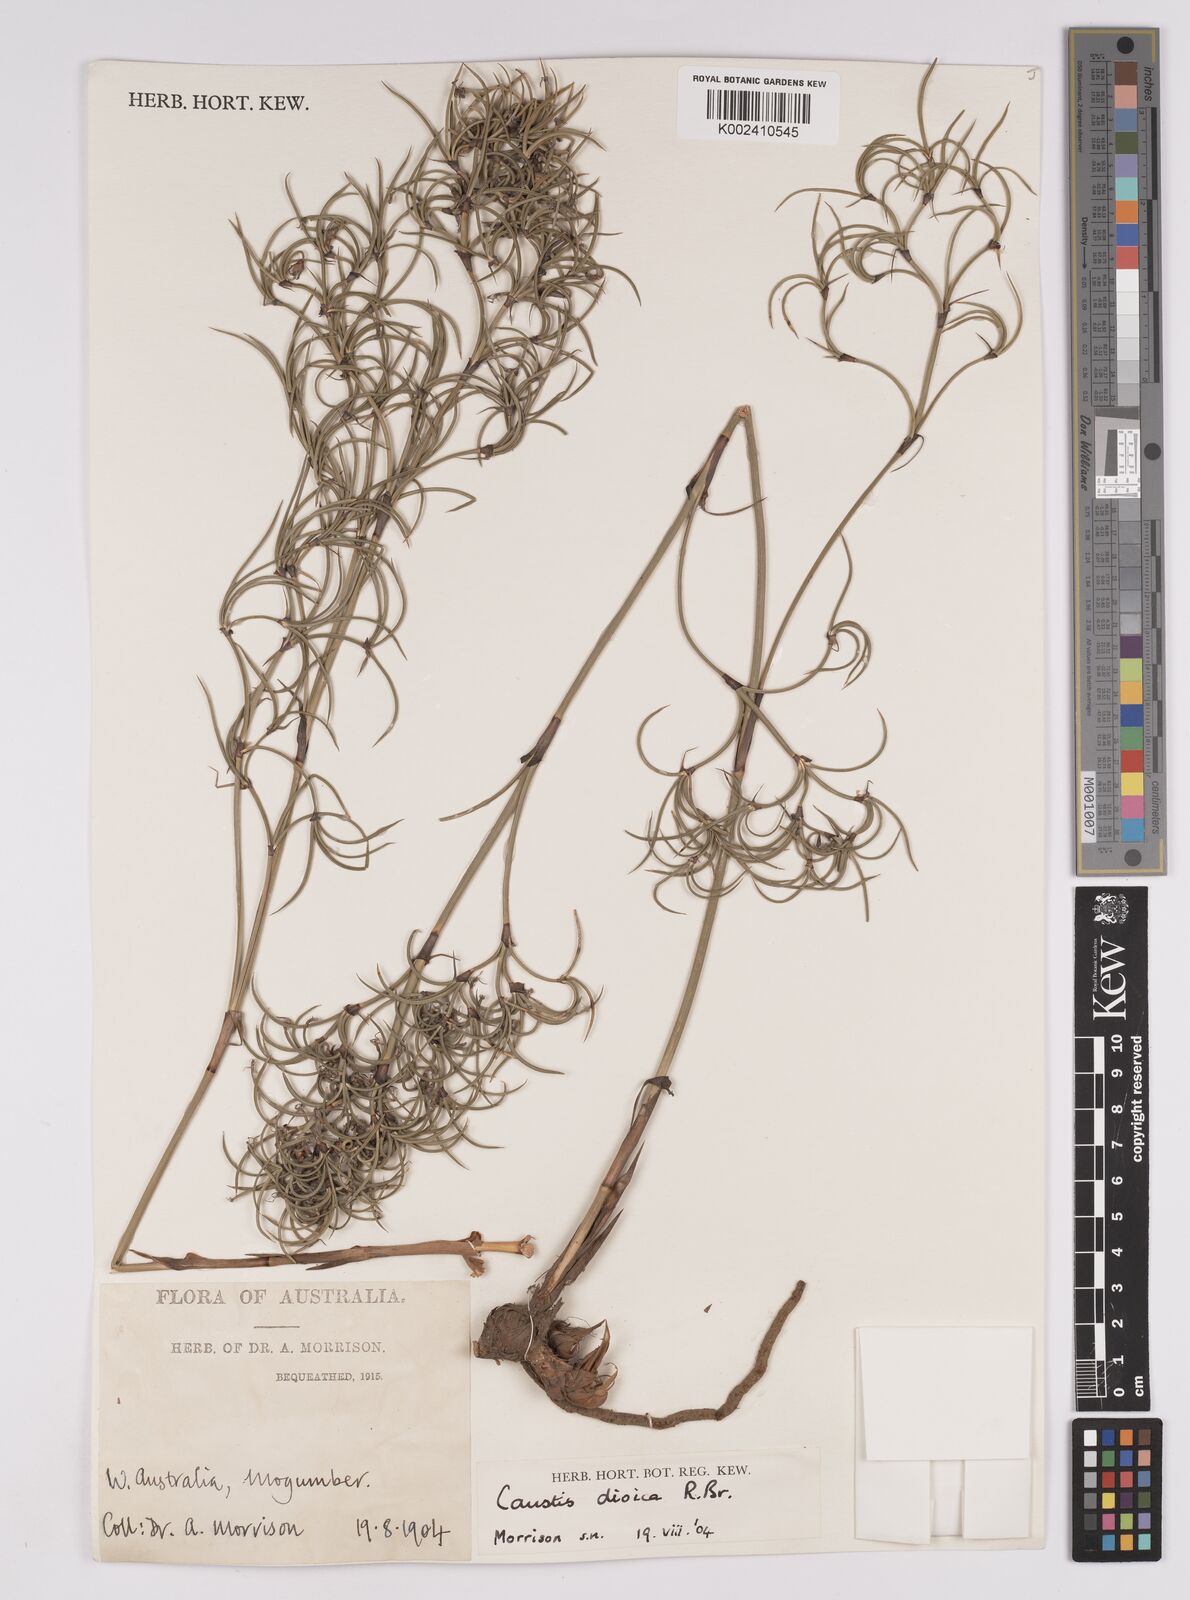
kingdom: Plantae
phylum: Tracheophyta
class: Liliopsida
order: Poales
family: Cyperaceae
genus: Caustis
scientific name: Caustis dioica
